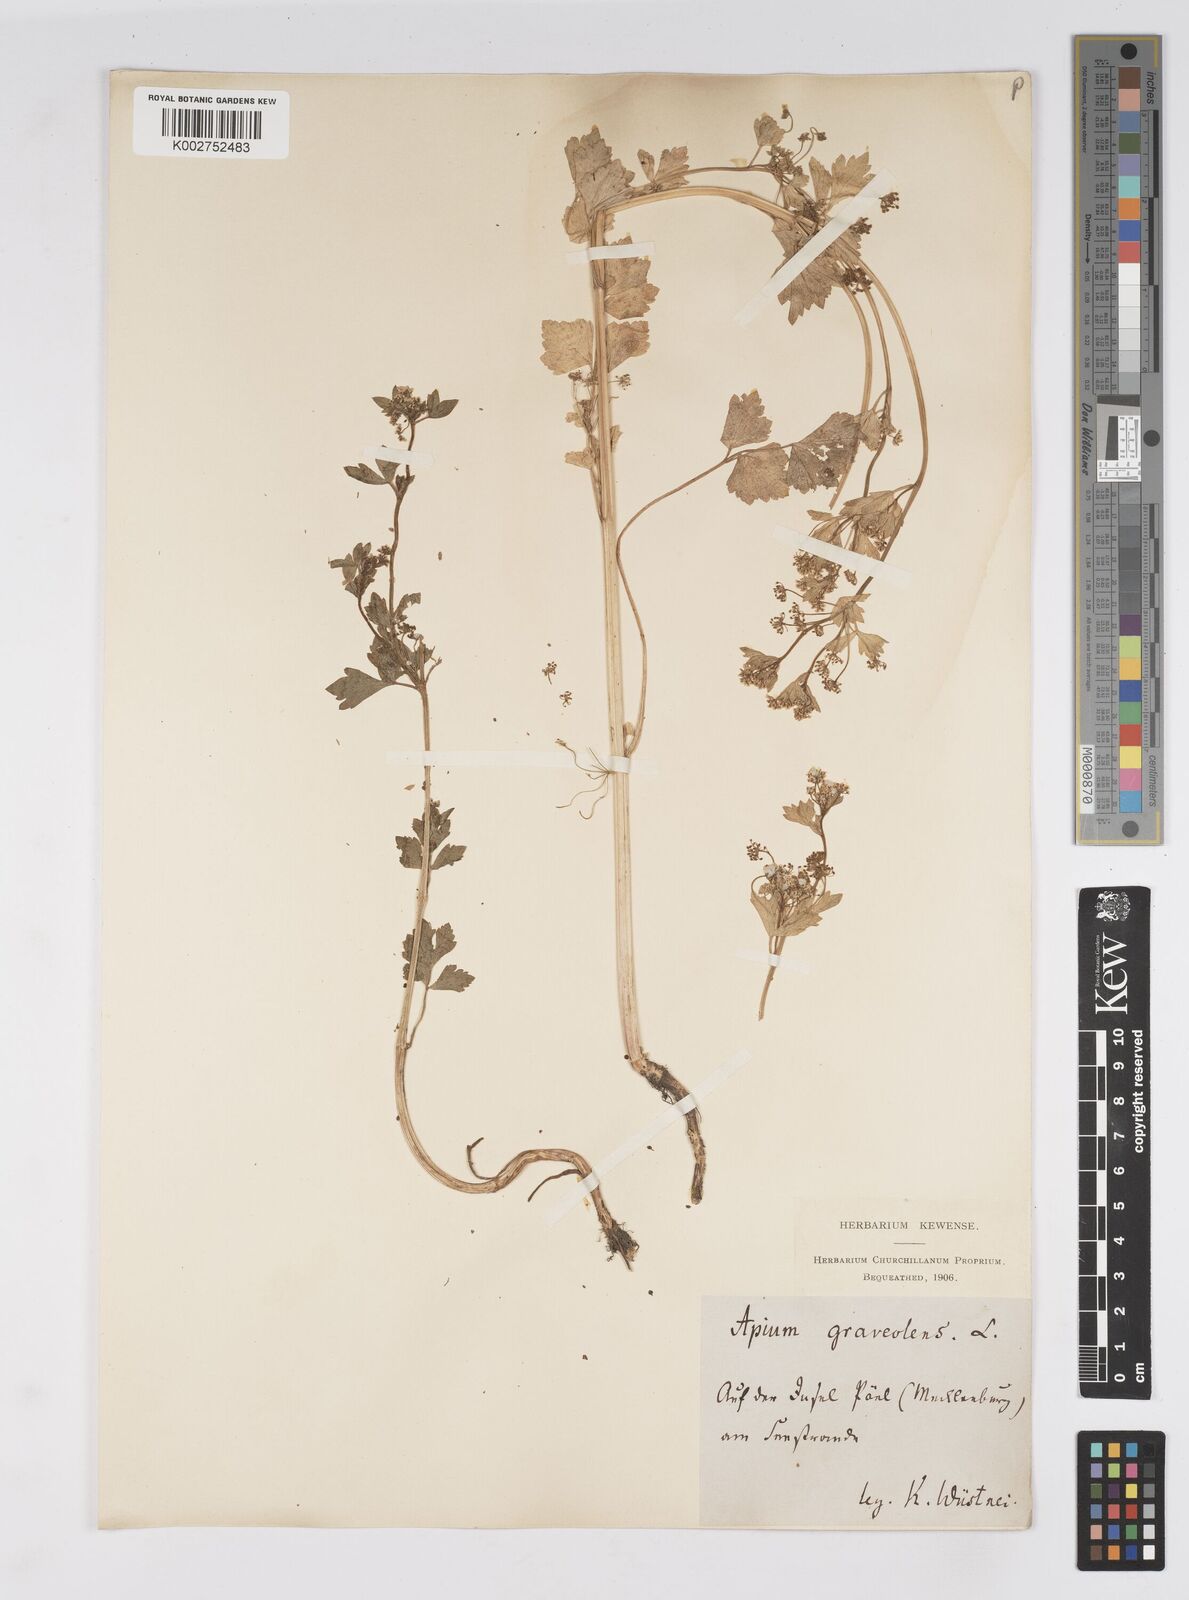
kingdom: Plantae
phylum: Tracheophyta
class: Magnoliopsida
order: Apiales
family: Apiaceae
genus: Apium
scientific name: Apium graveolens
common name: Wild celery
